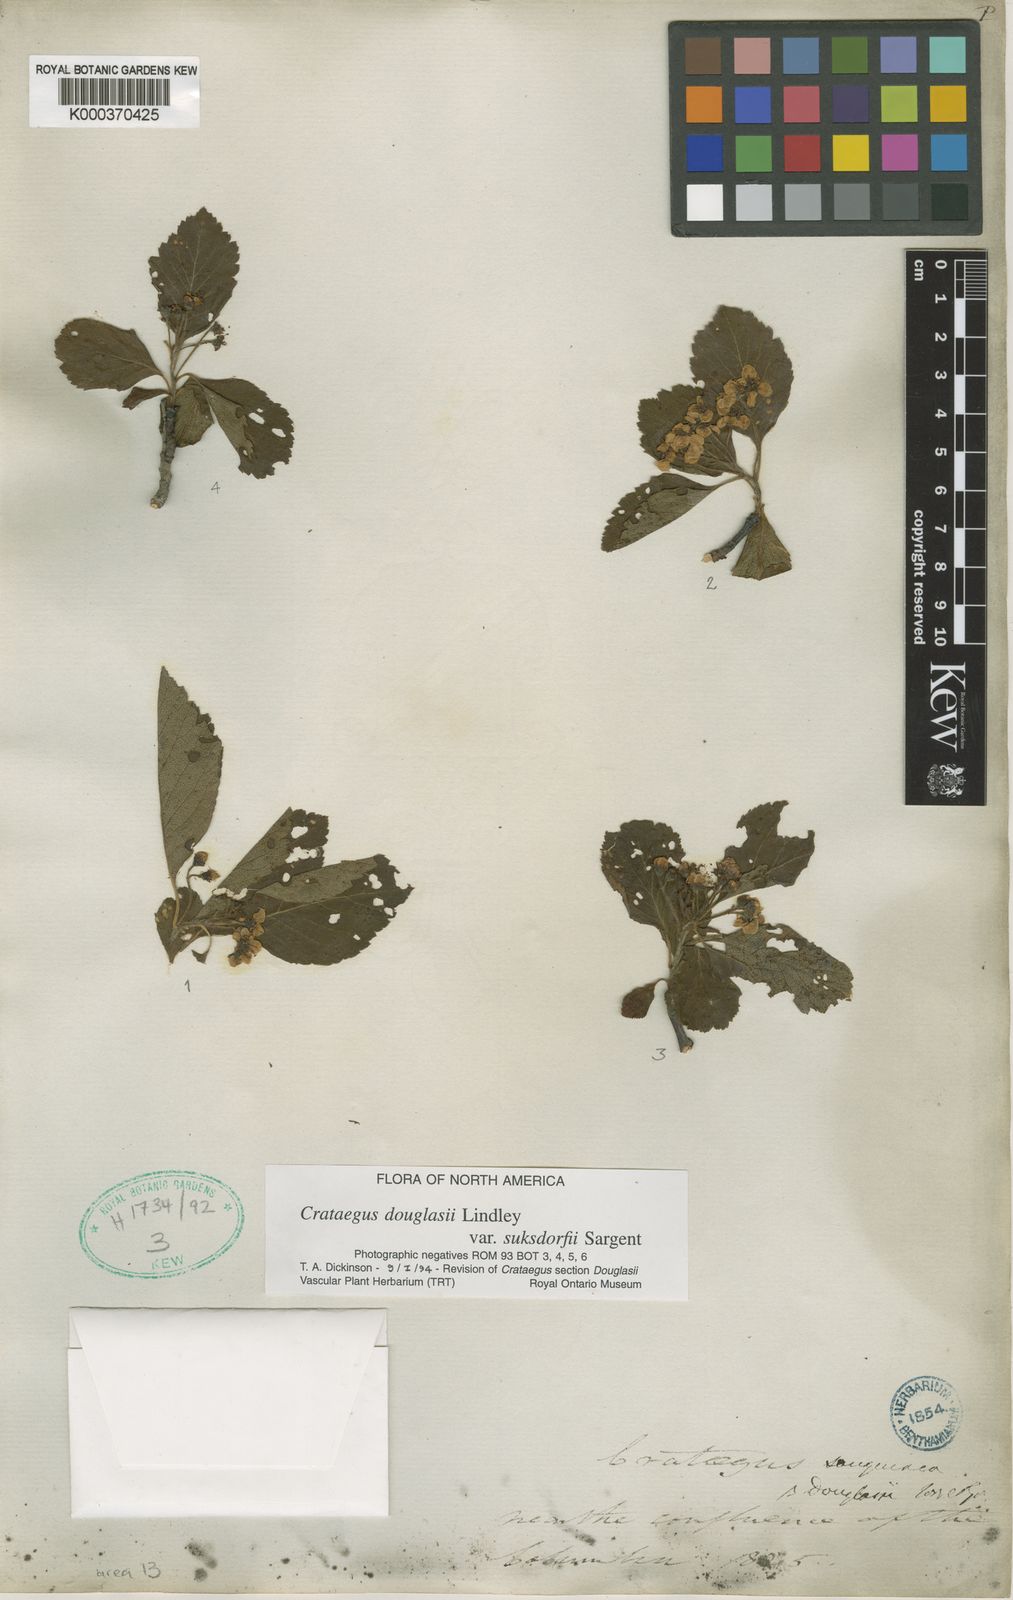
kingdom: Plantae
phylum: Tracheophyta
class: Magnoliopsida
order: Rosales
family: Rosaceae
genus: Crataegus
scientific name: Crataegus gaylussacia
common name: Huckleberry hawthorn
